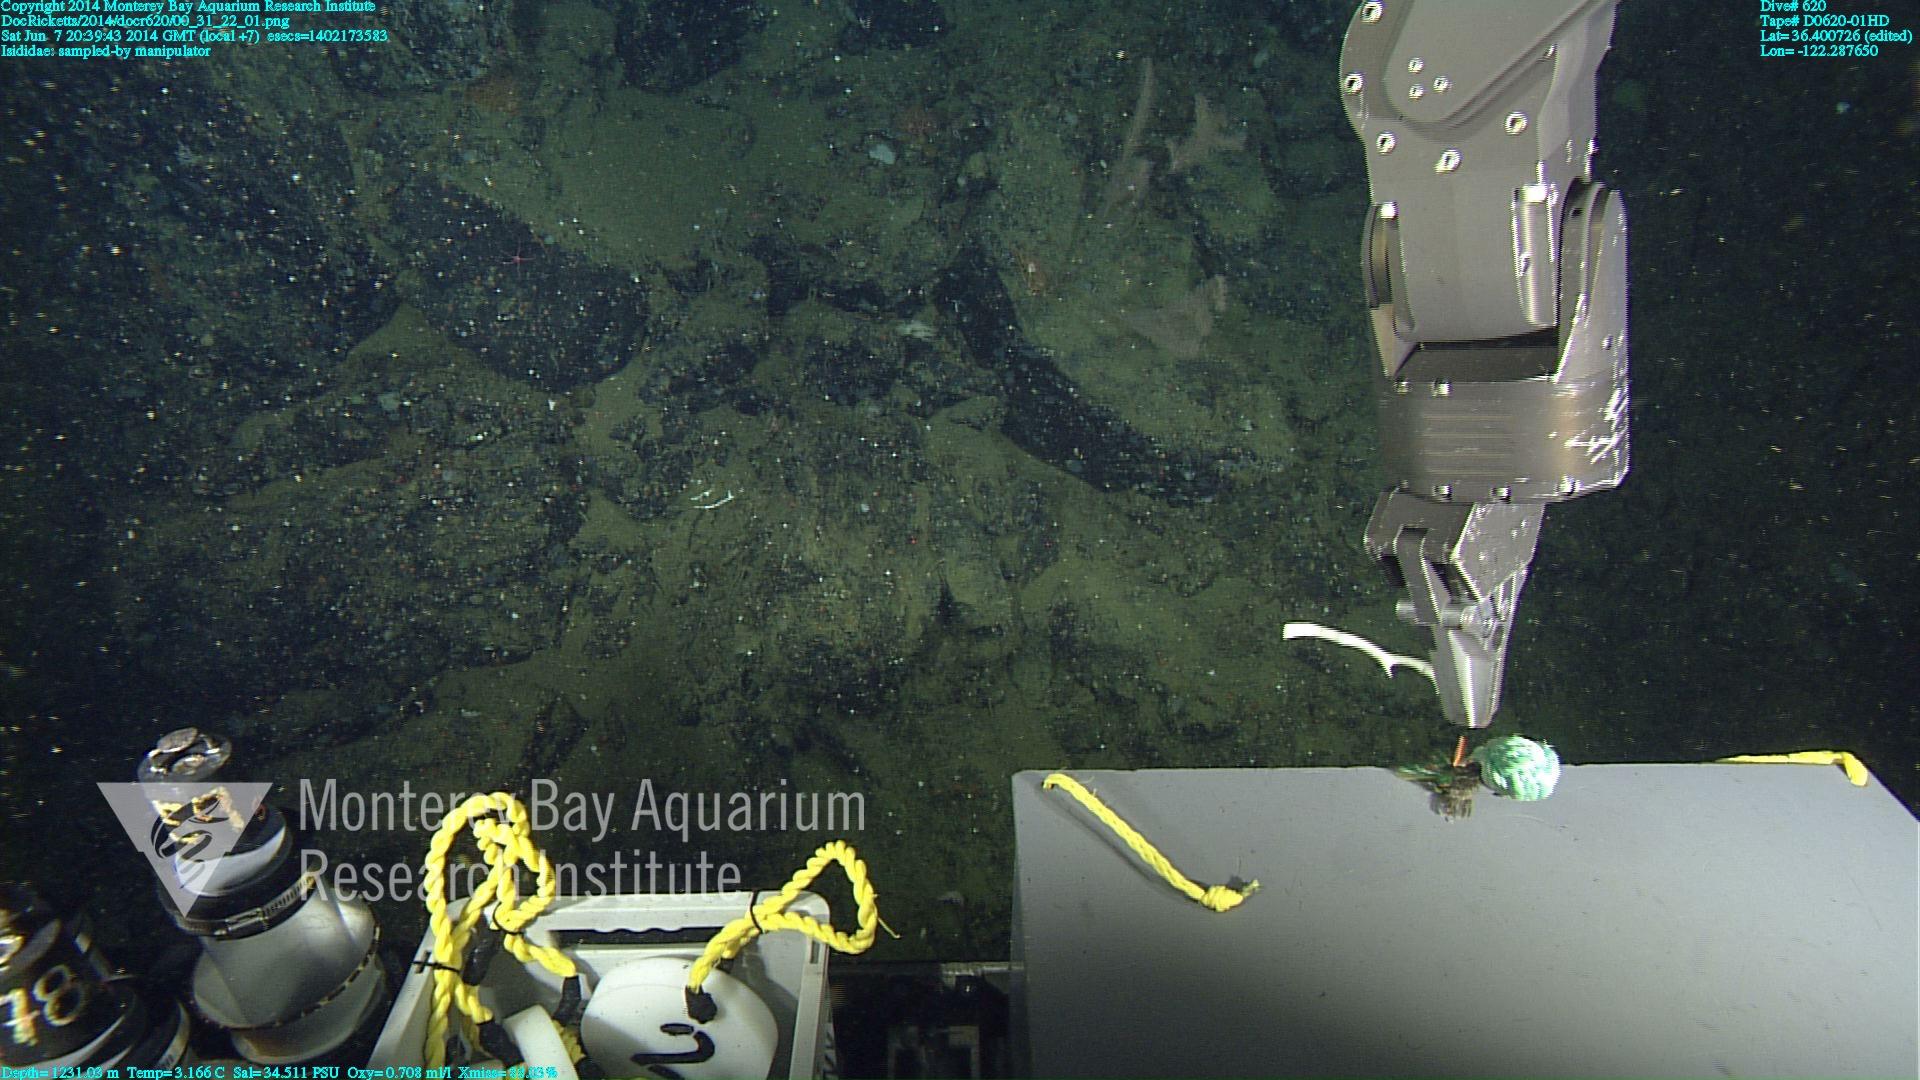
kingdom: Animalia
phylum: Cnidaria
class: Anthozoa
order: Scleralcyonacea
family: Keratoisididae
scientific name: Keratoisididae
